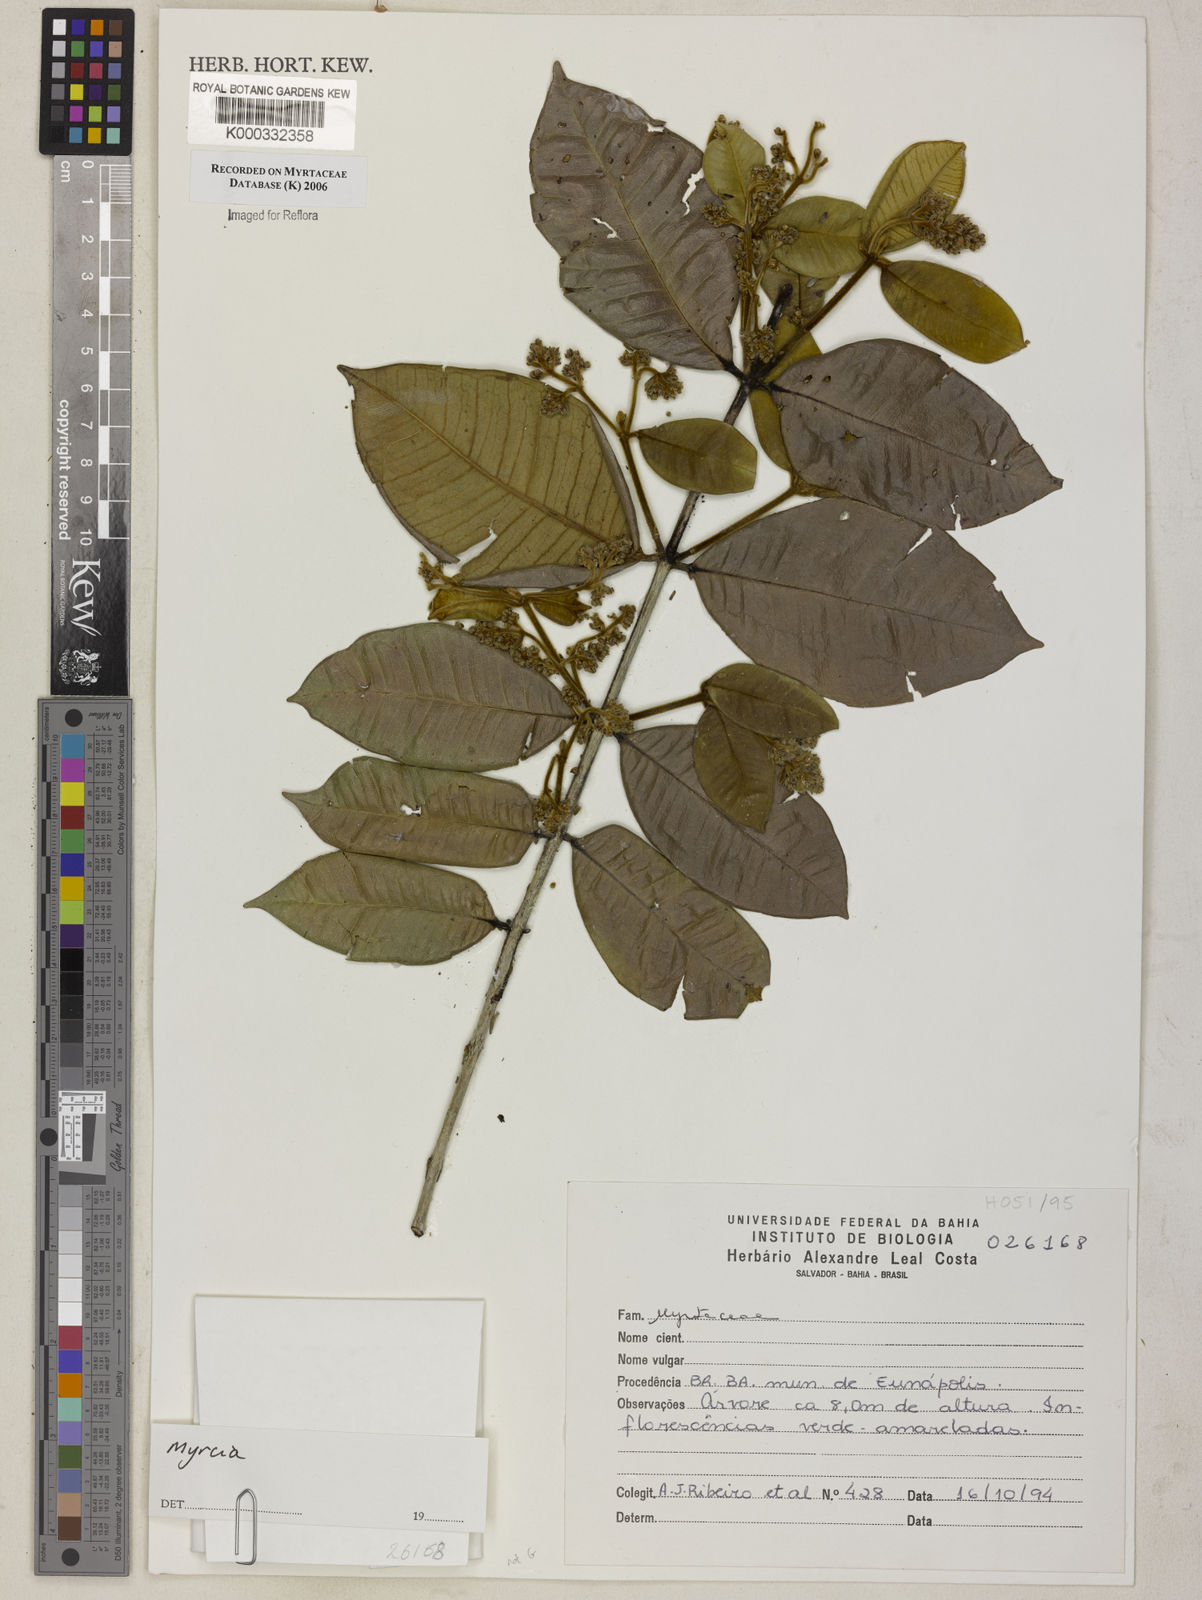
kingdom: Plantae
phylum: Tracheophyta
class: Magnoliopsida
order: Myrtales
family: Myrtaceae
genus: Myrcia
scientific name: Myrcia
